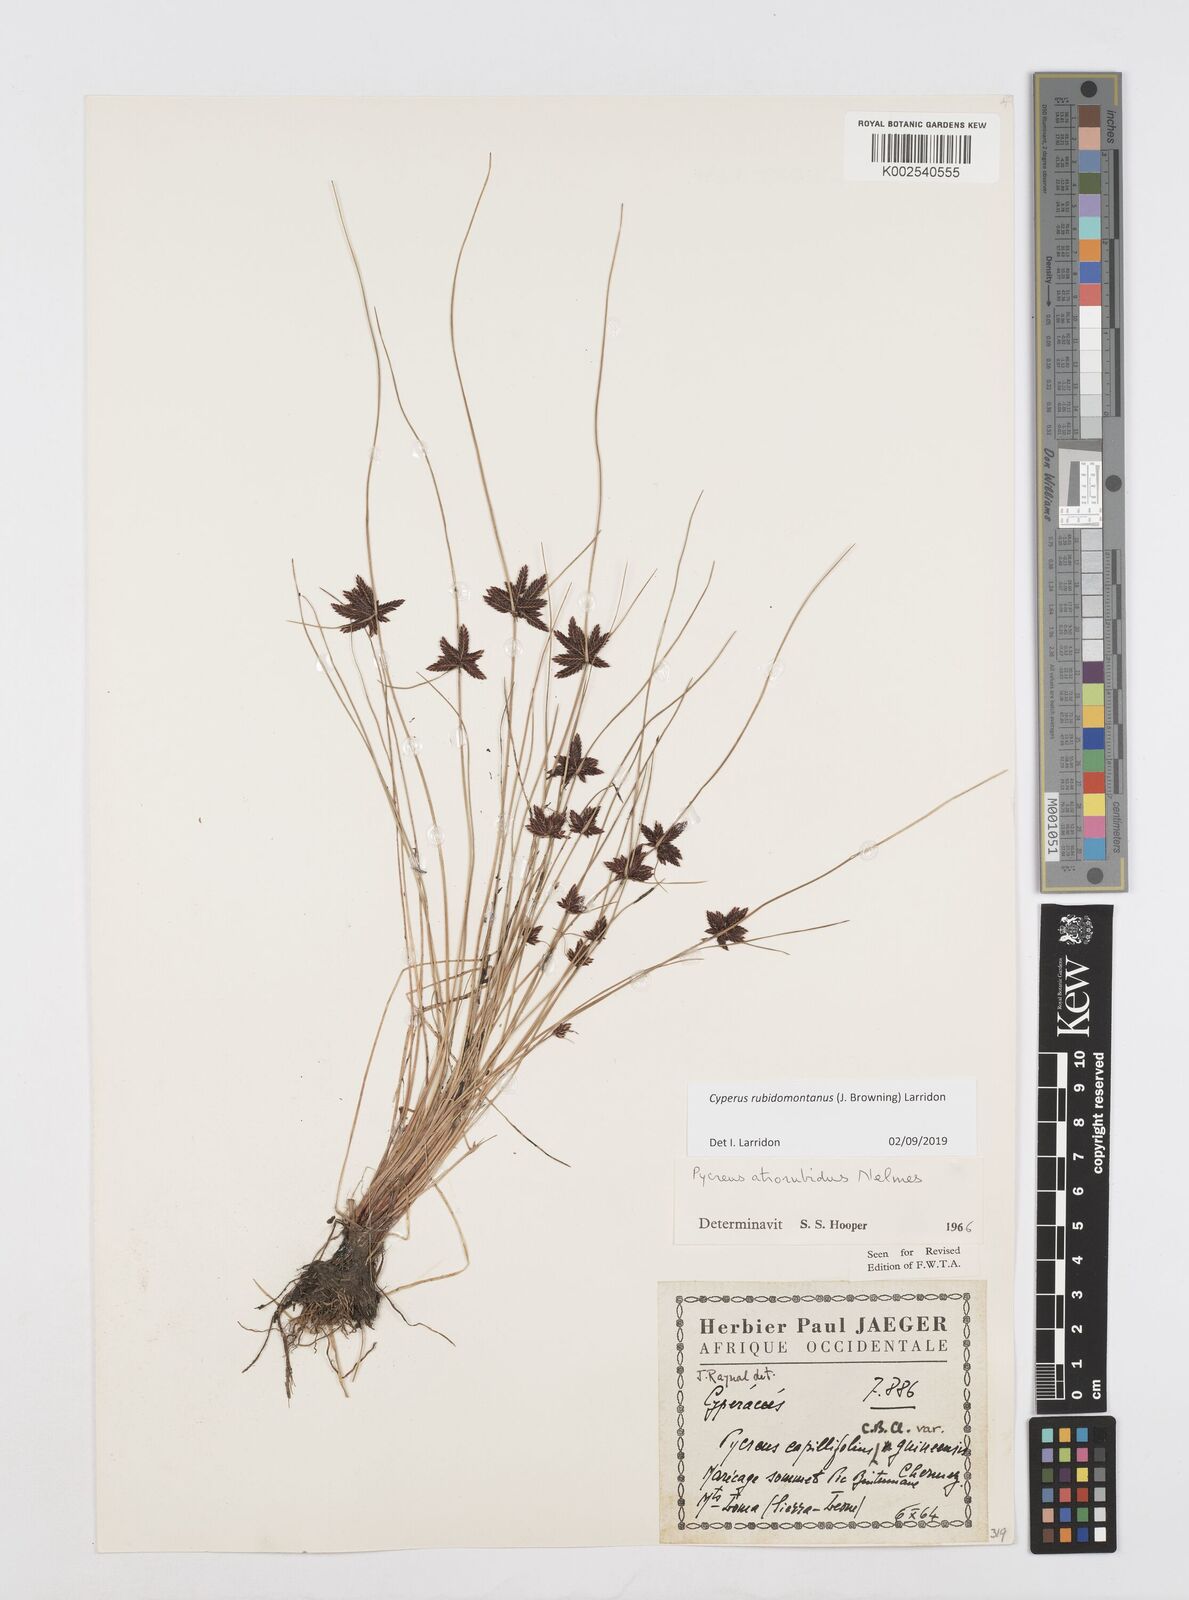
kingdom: Plantae
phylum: Tracheophyta
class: Liliopsida
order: Poales
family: Cyperaceae
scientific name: Cyperaceae
